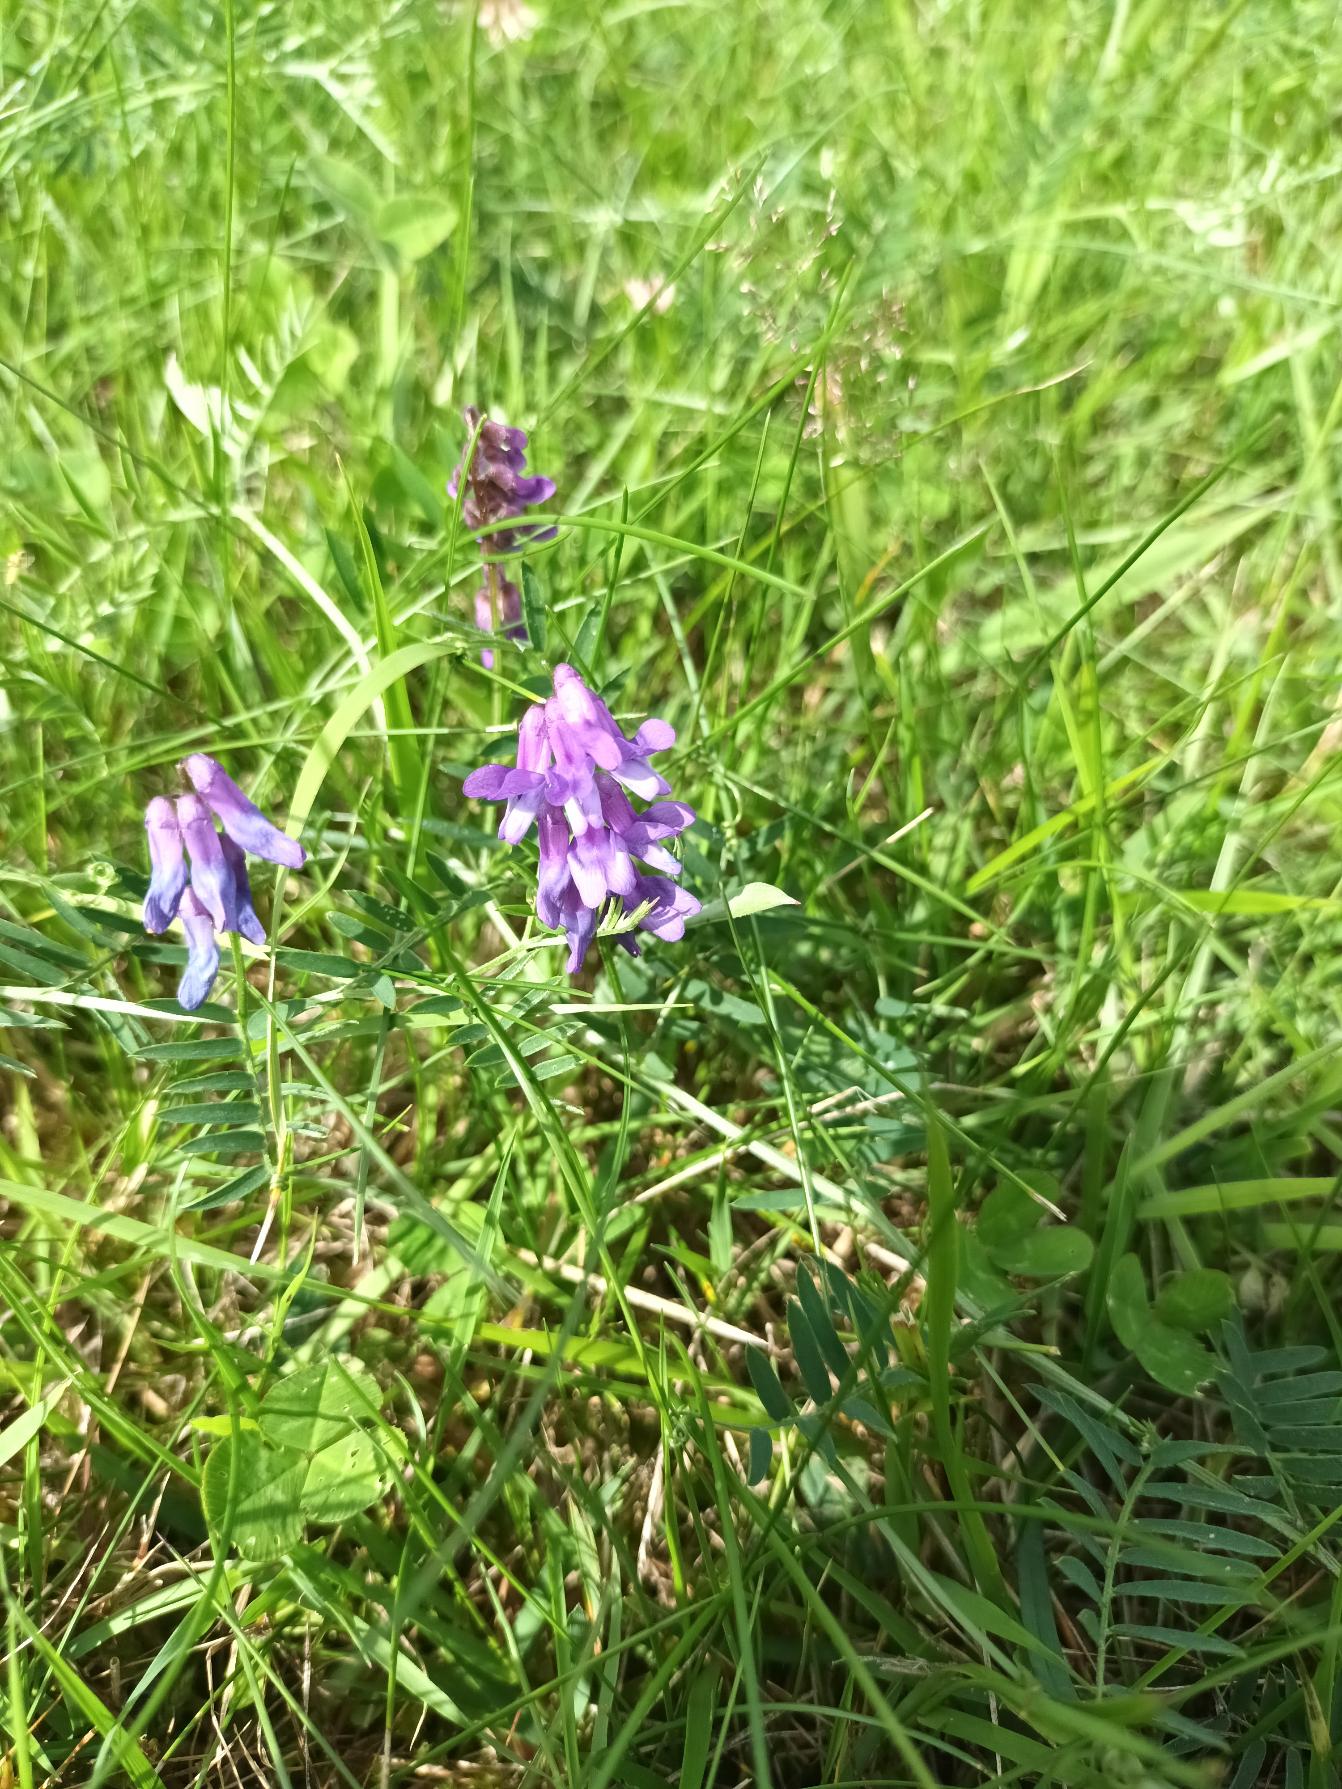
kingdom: Plantae
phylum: Tracheophyta
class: Magnoliopsida
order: Fabales
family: Fabaceae
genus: Vicia
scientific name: Vicia cracca
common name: Muse-vikke
